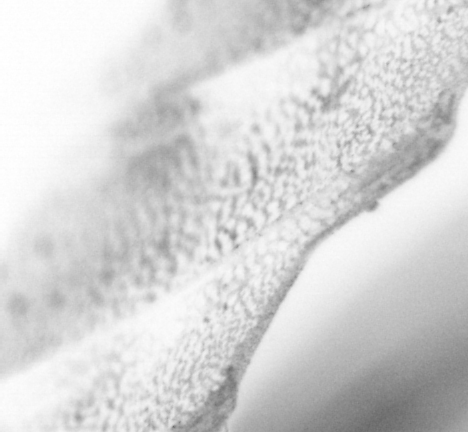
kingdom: Animalia
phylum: Chordata
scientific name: Chordata
